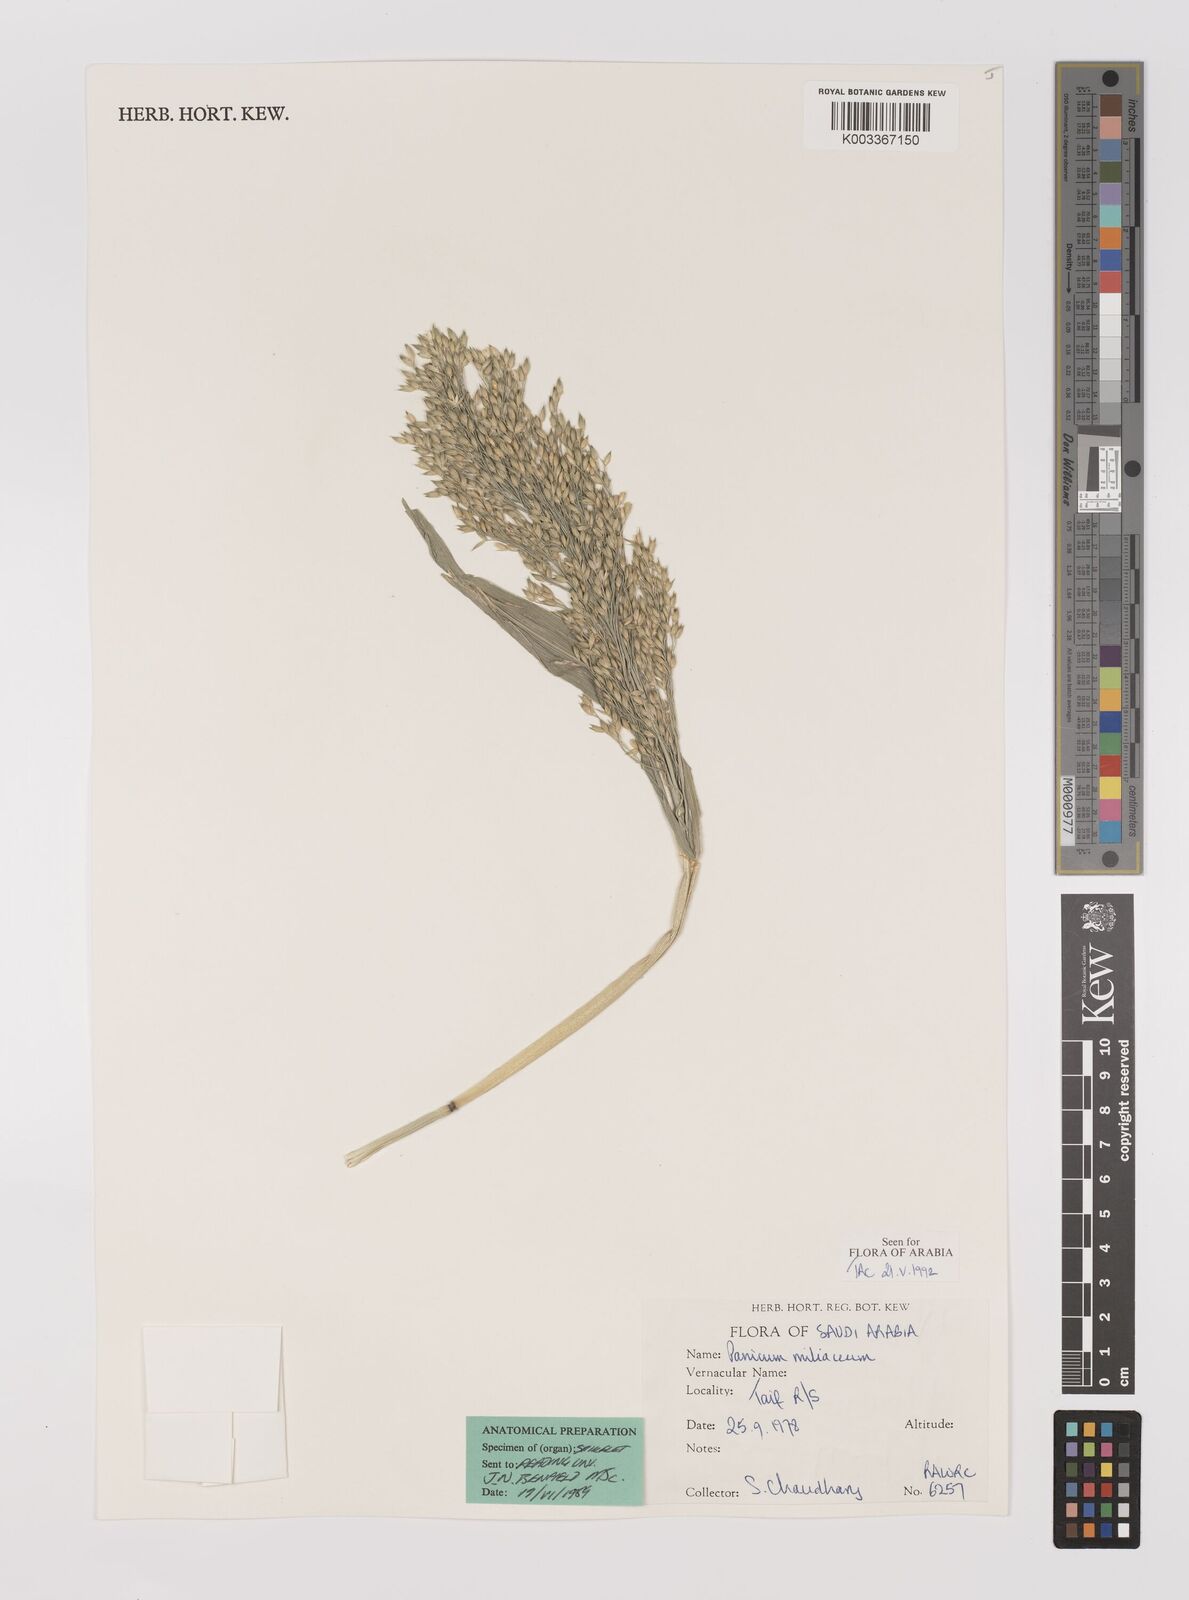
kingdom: Plantae
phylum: Tracheophyta
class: Liliopsida
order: Poales
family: Poaceae
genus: Panicum
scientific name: Panicum miliaceum
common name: Common millet
